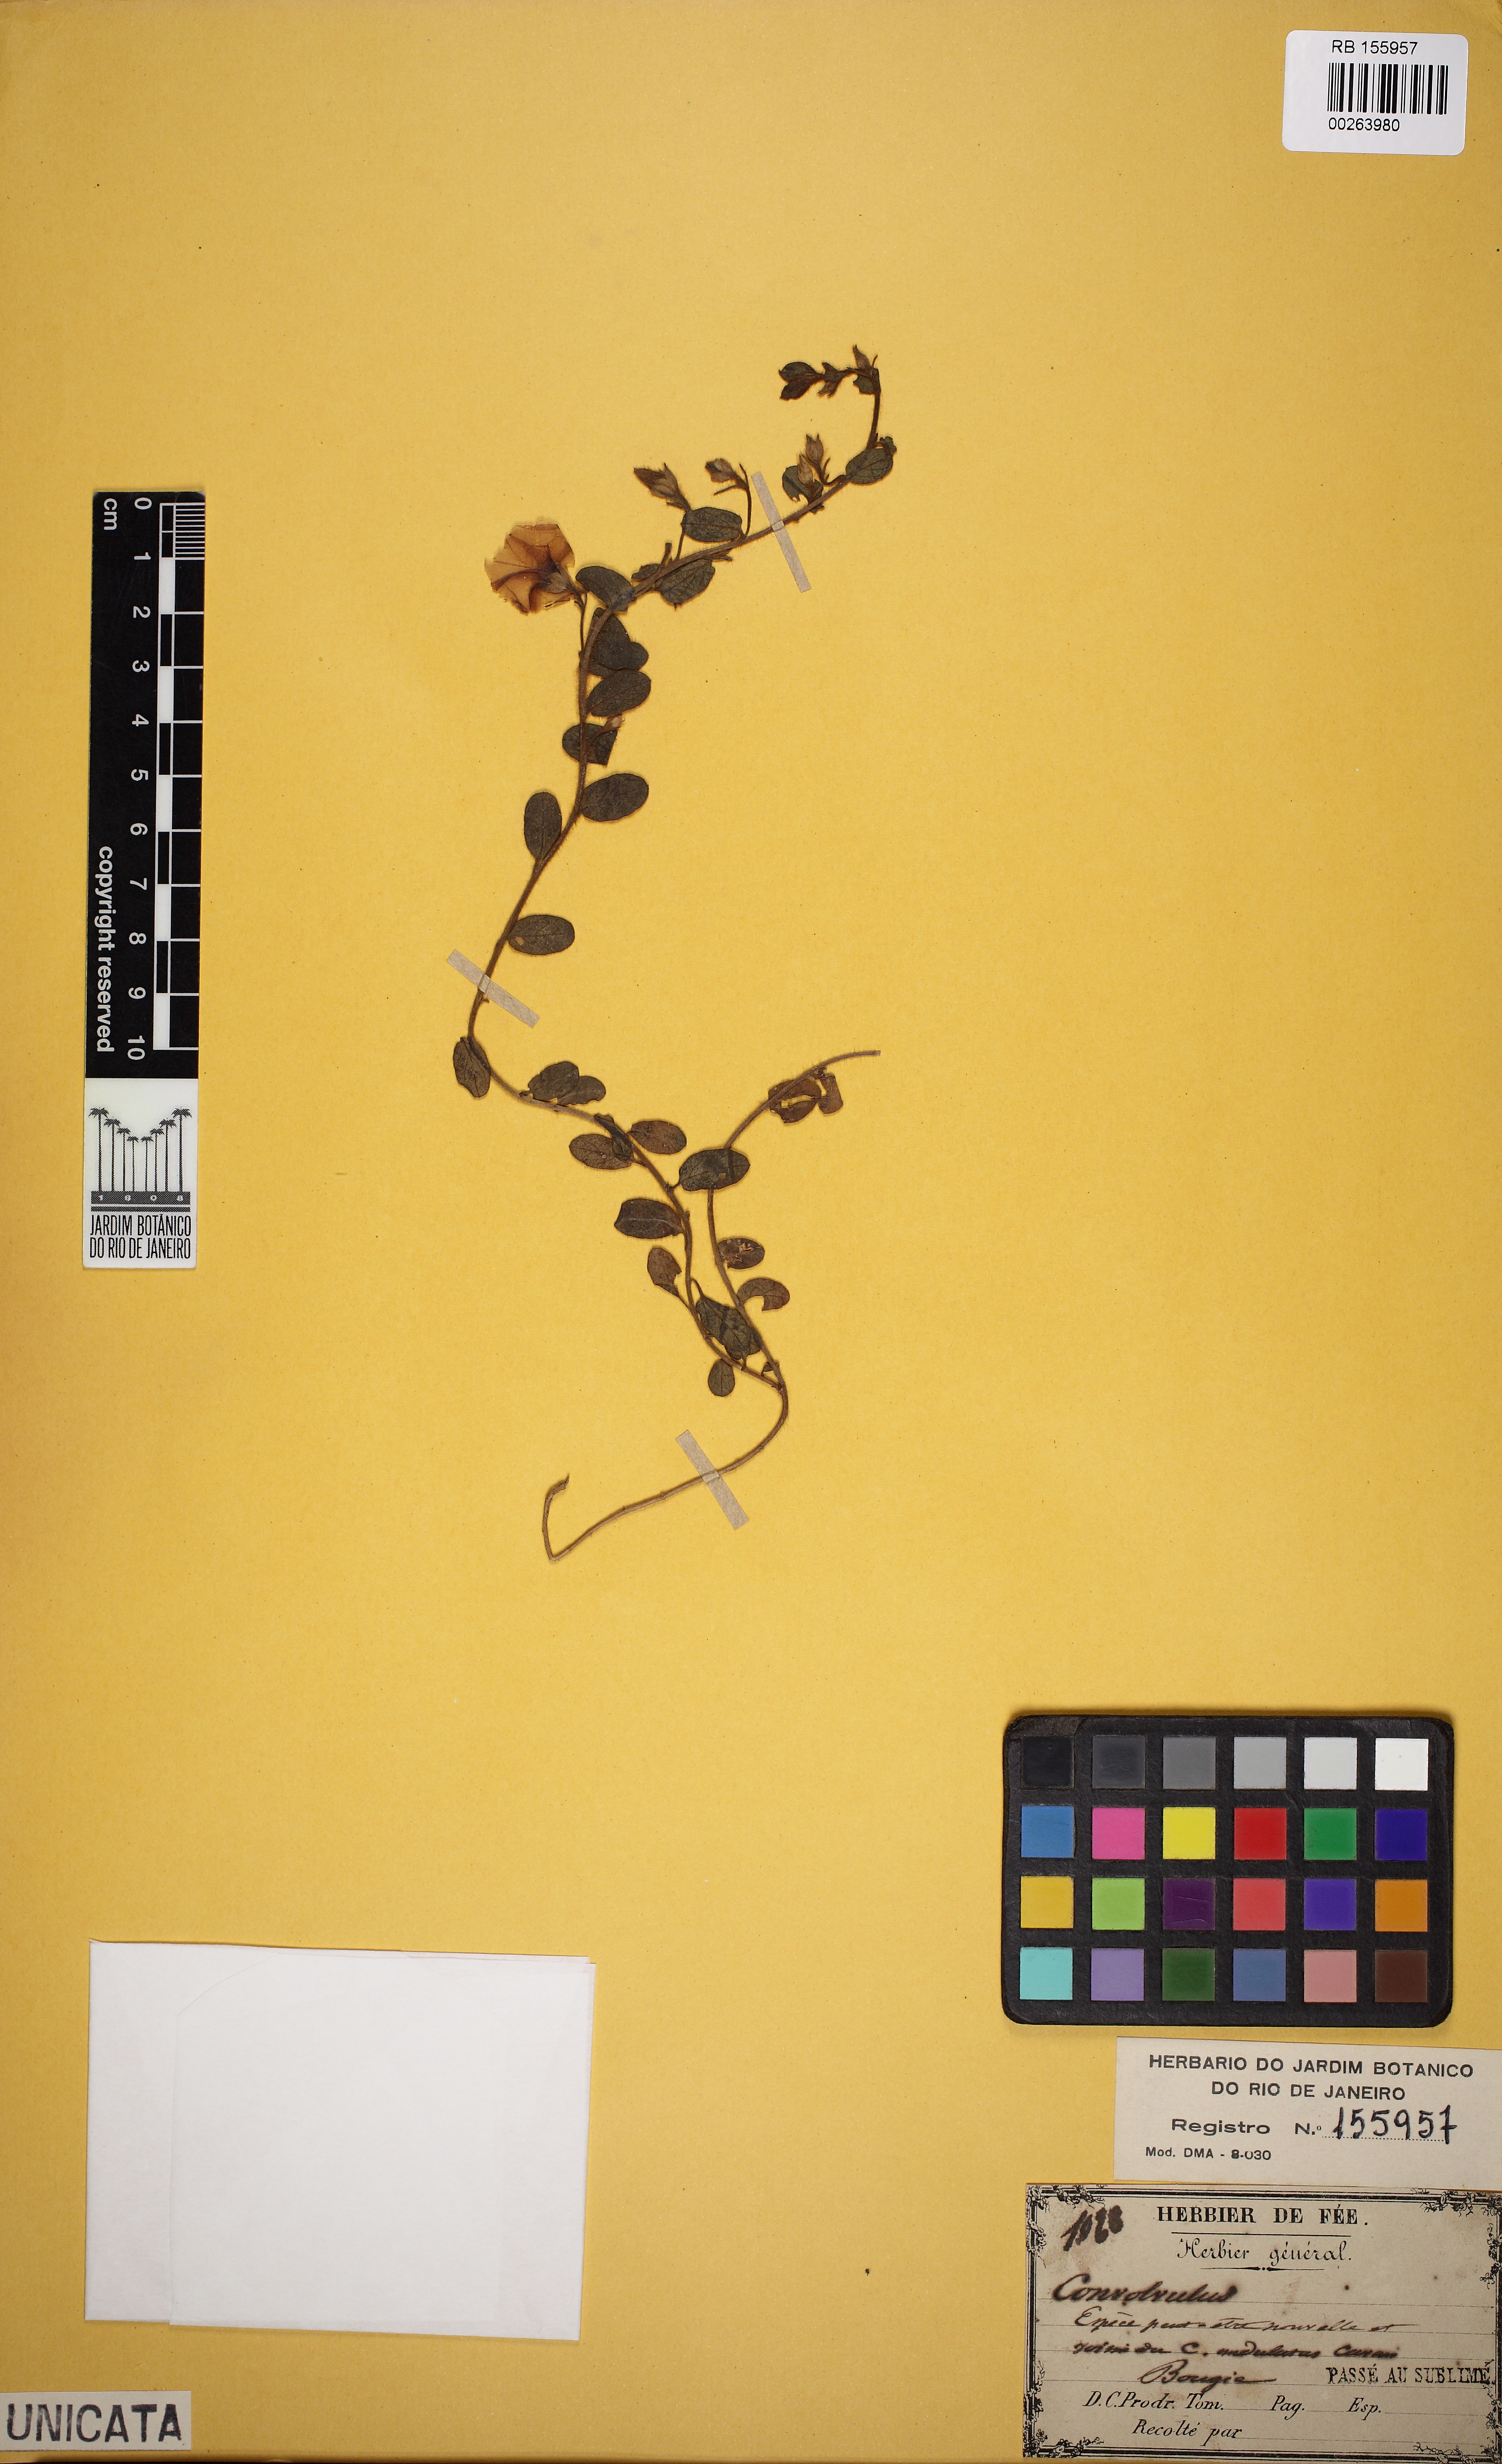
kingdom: Plantae
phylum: Tracheophyta
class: Magnoliopsida
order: Solanales
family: Convolvulaceae
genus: Convolvulus
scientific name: Convolvulus
